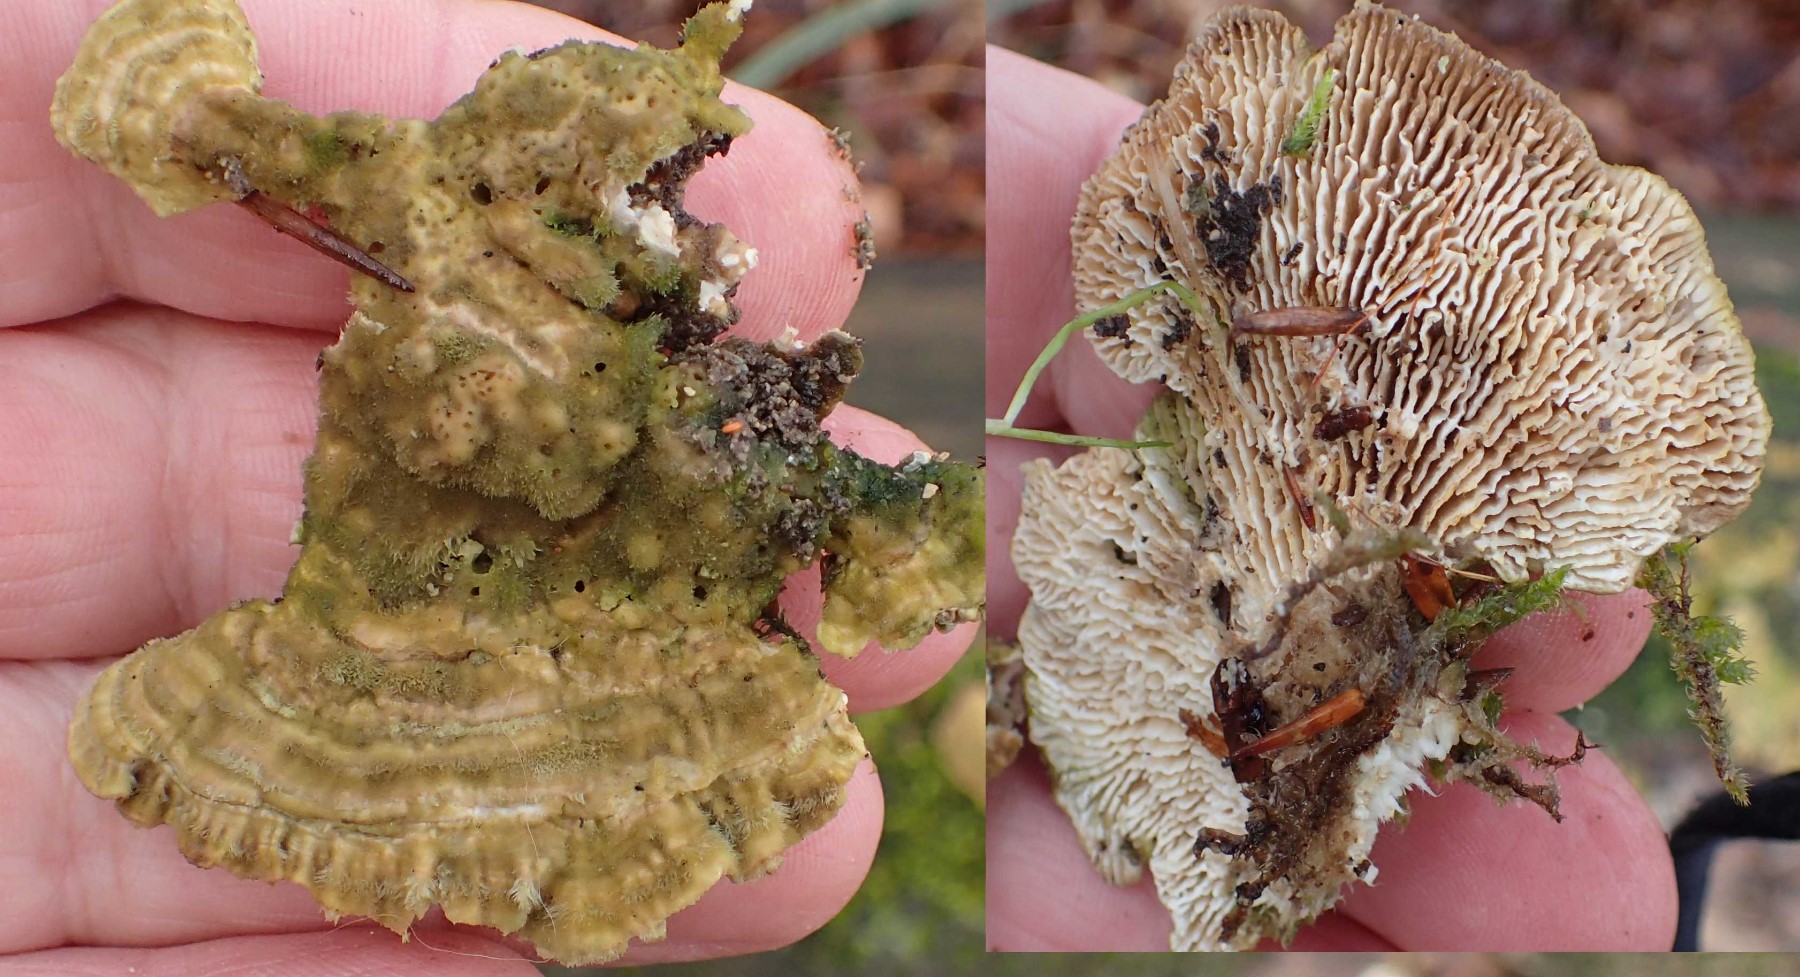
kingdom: Fungi
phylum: Basidiomycota
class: Agaricomycetes
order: Polyporales
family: Polyporaceae
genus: Lenzites
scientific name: Lenzites betulinus
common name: birke-læderporesvamp
